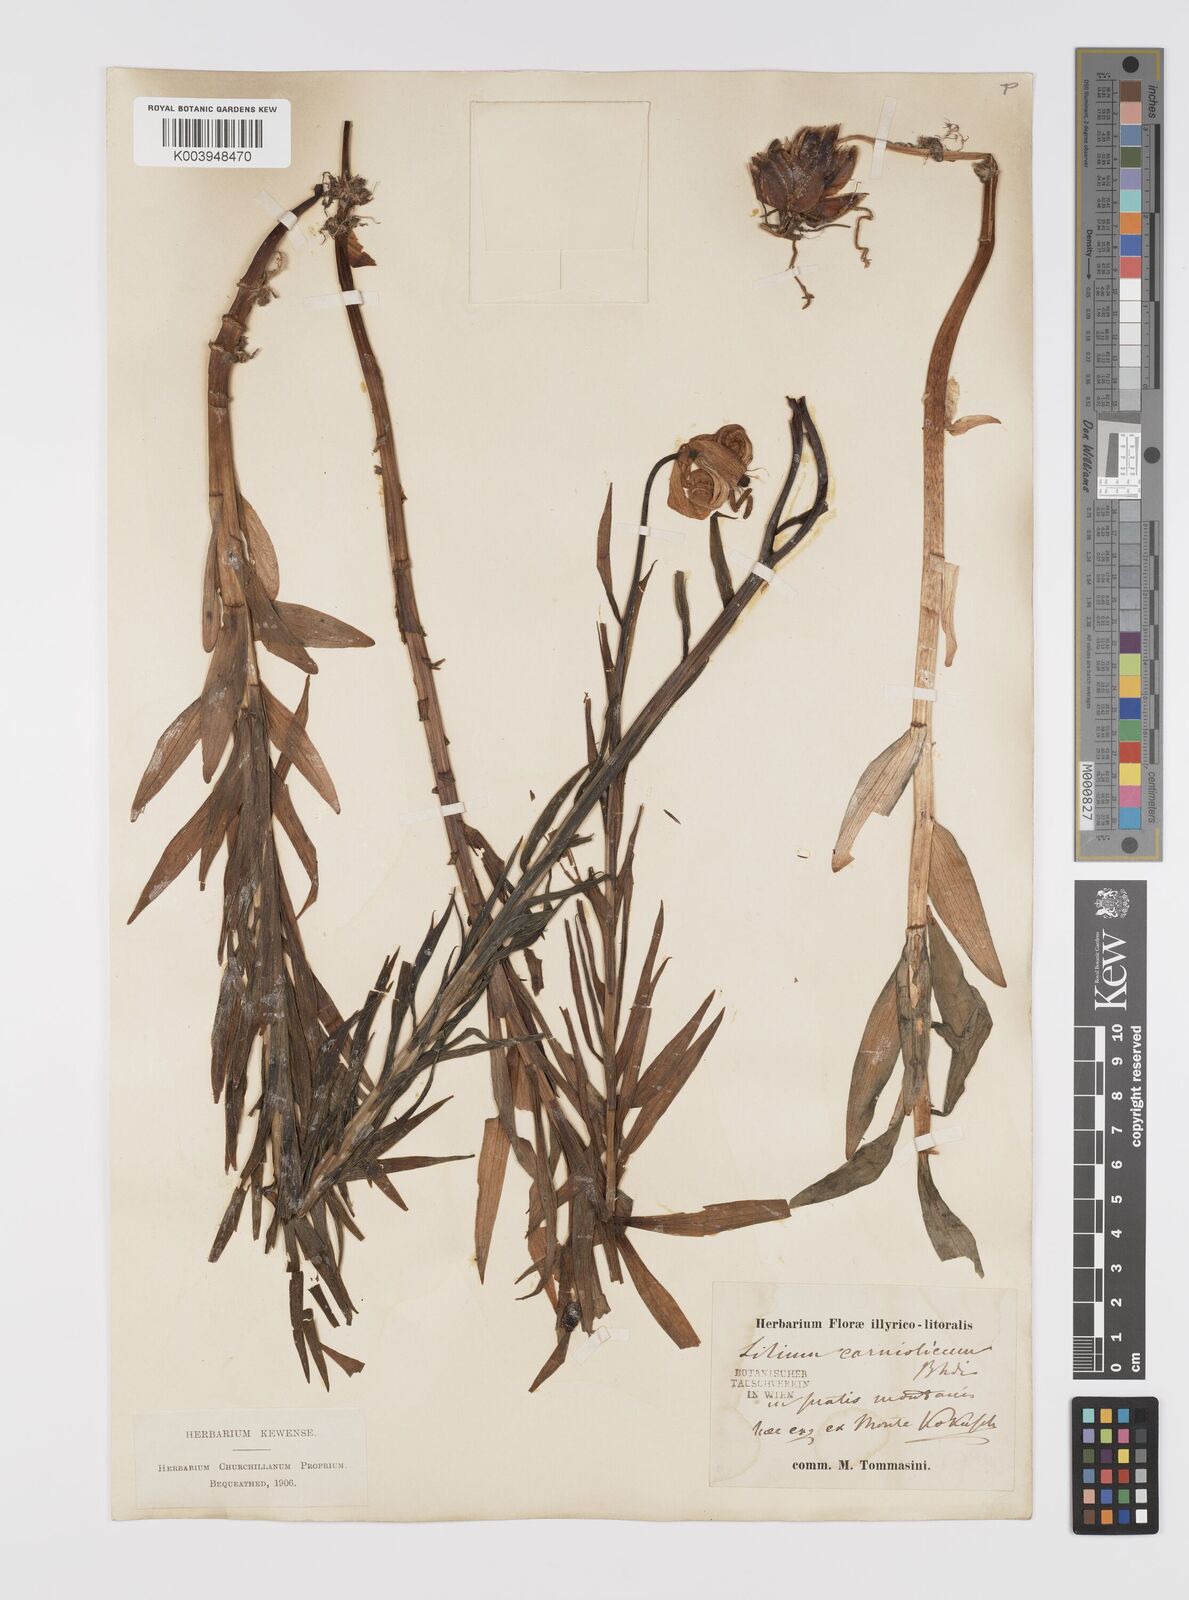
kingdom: Plantae
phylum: Tracheophyta
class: Liliopsida
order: Liliales
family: Liliaceae
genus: Lilium
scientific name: Lilium
